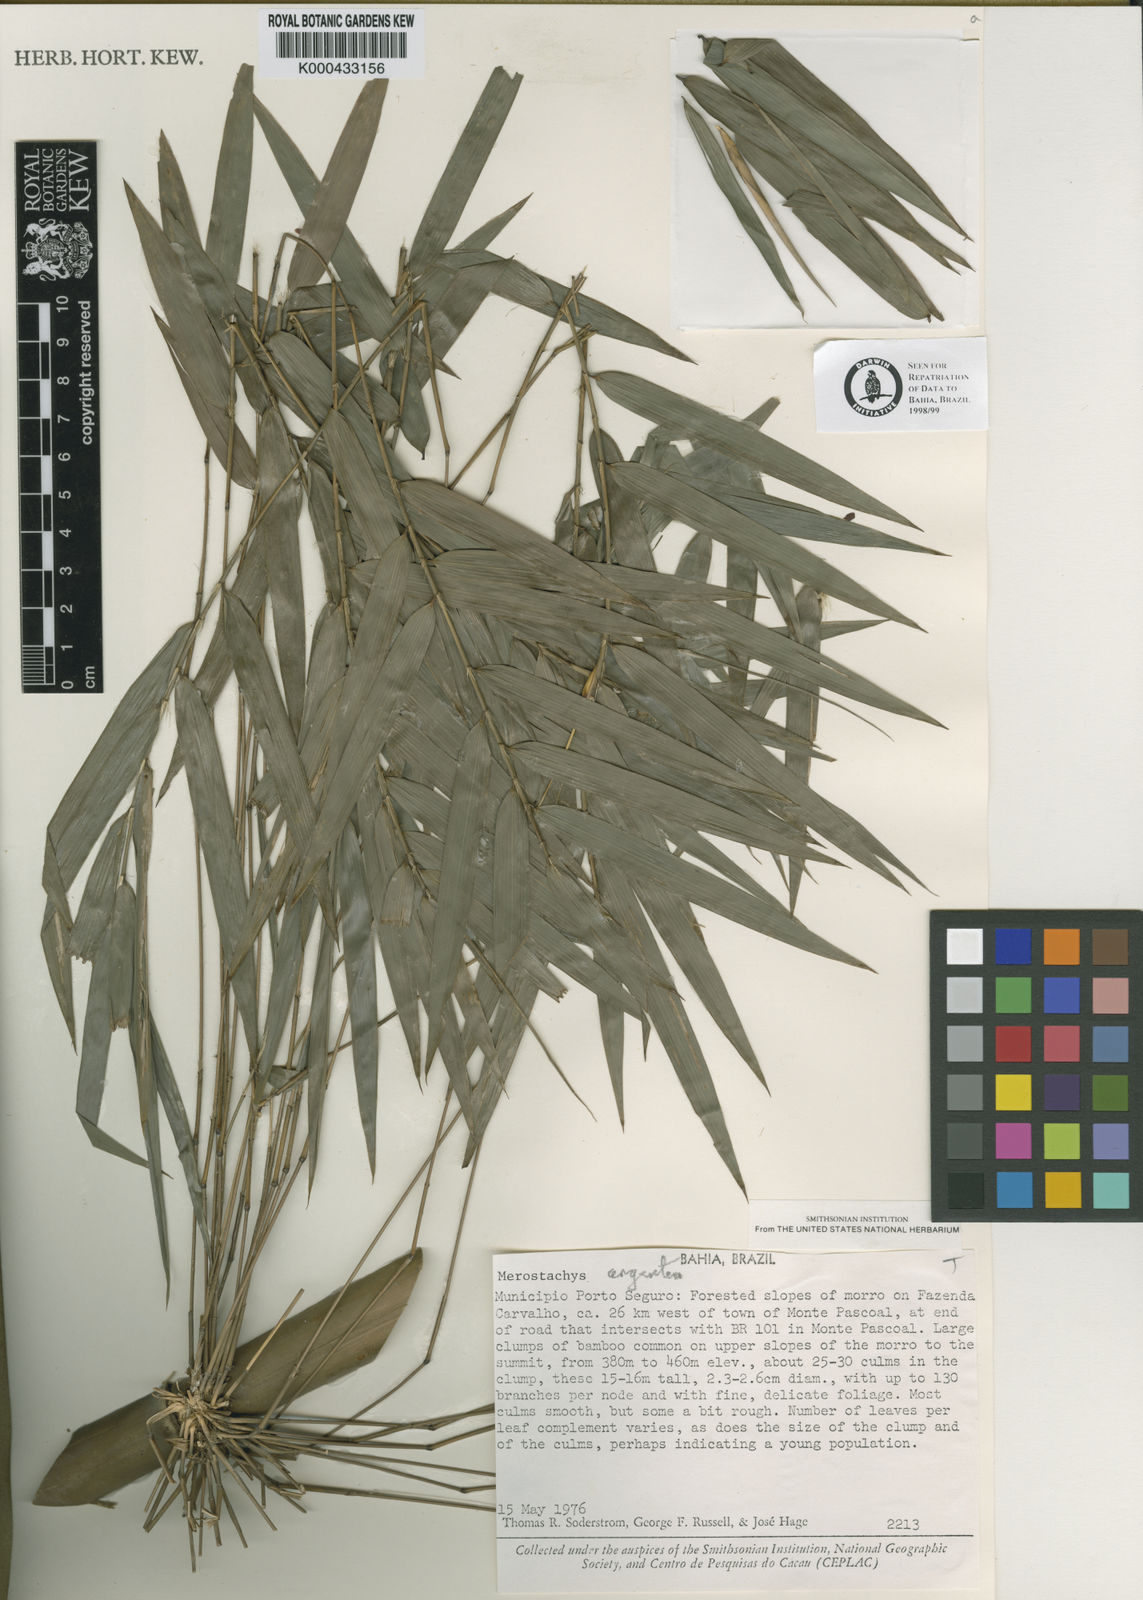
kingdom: Plantae
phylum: Tracheophyta
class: Liliopsida
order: Poales
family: Poaceae
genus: Merostachys
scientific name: Merostachys argentea
